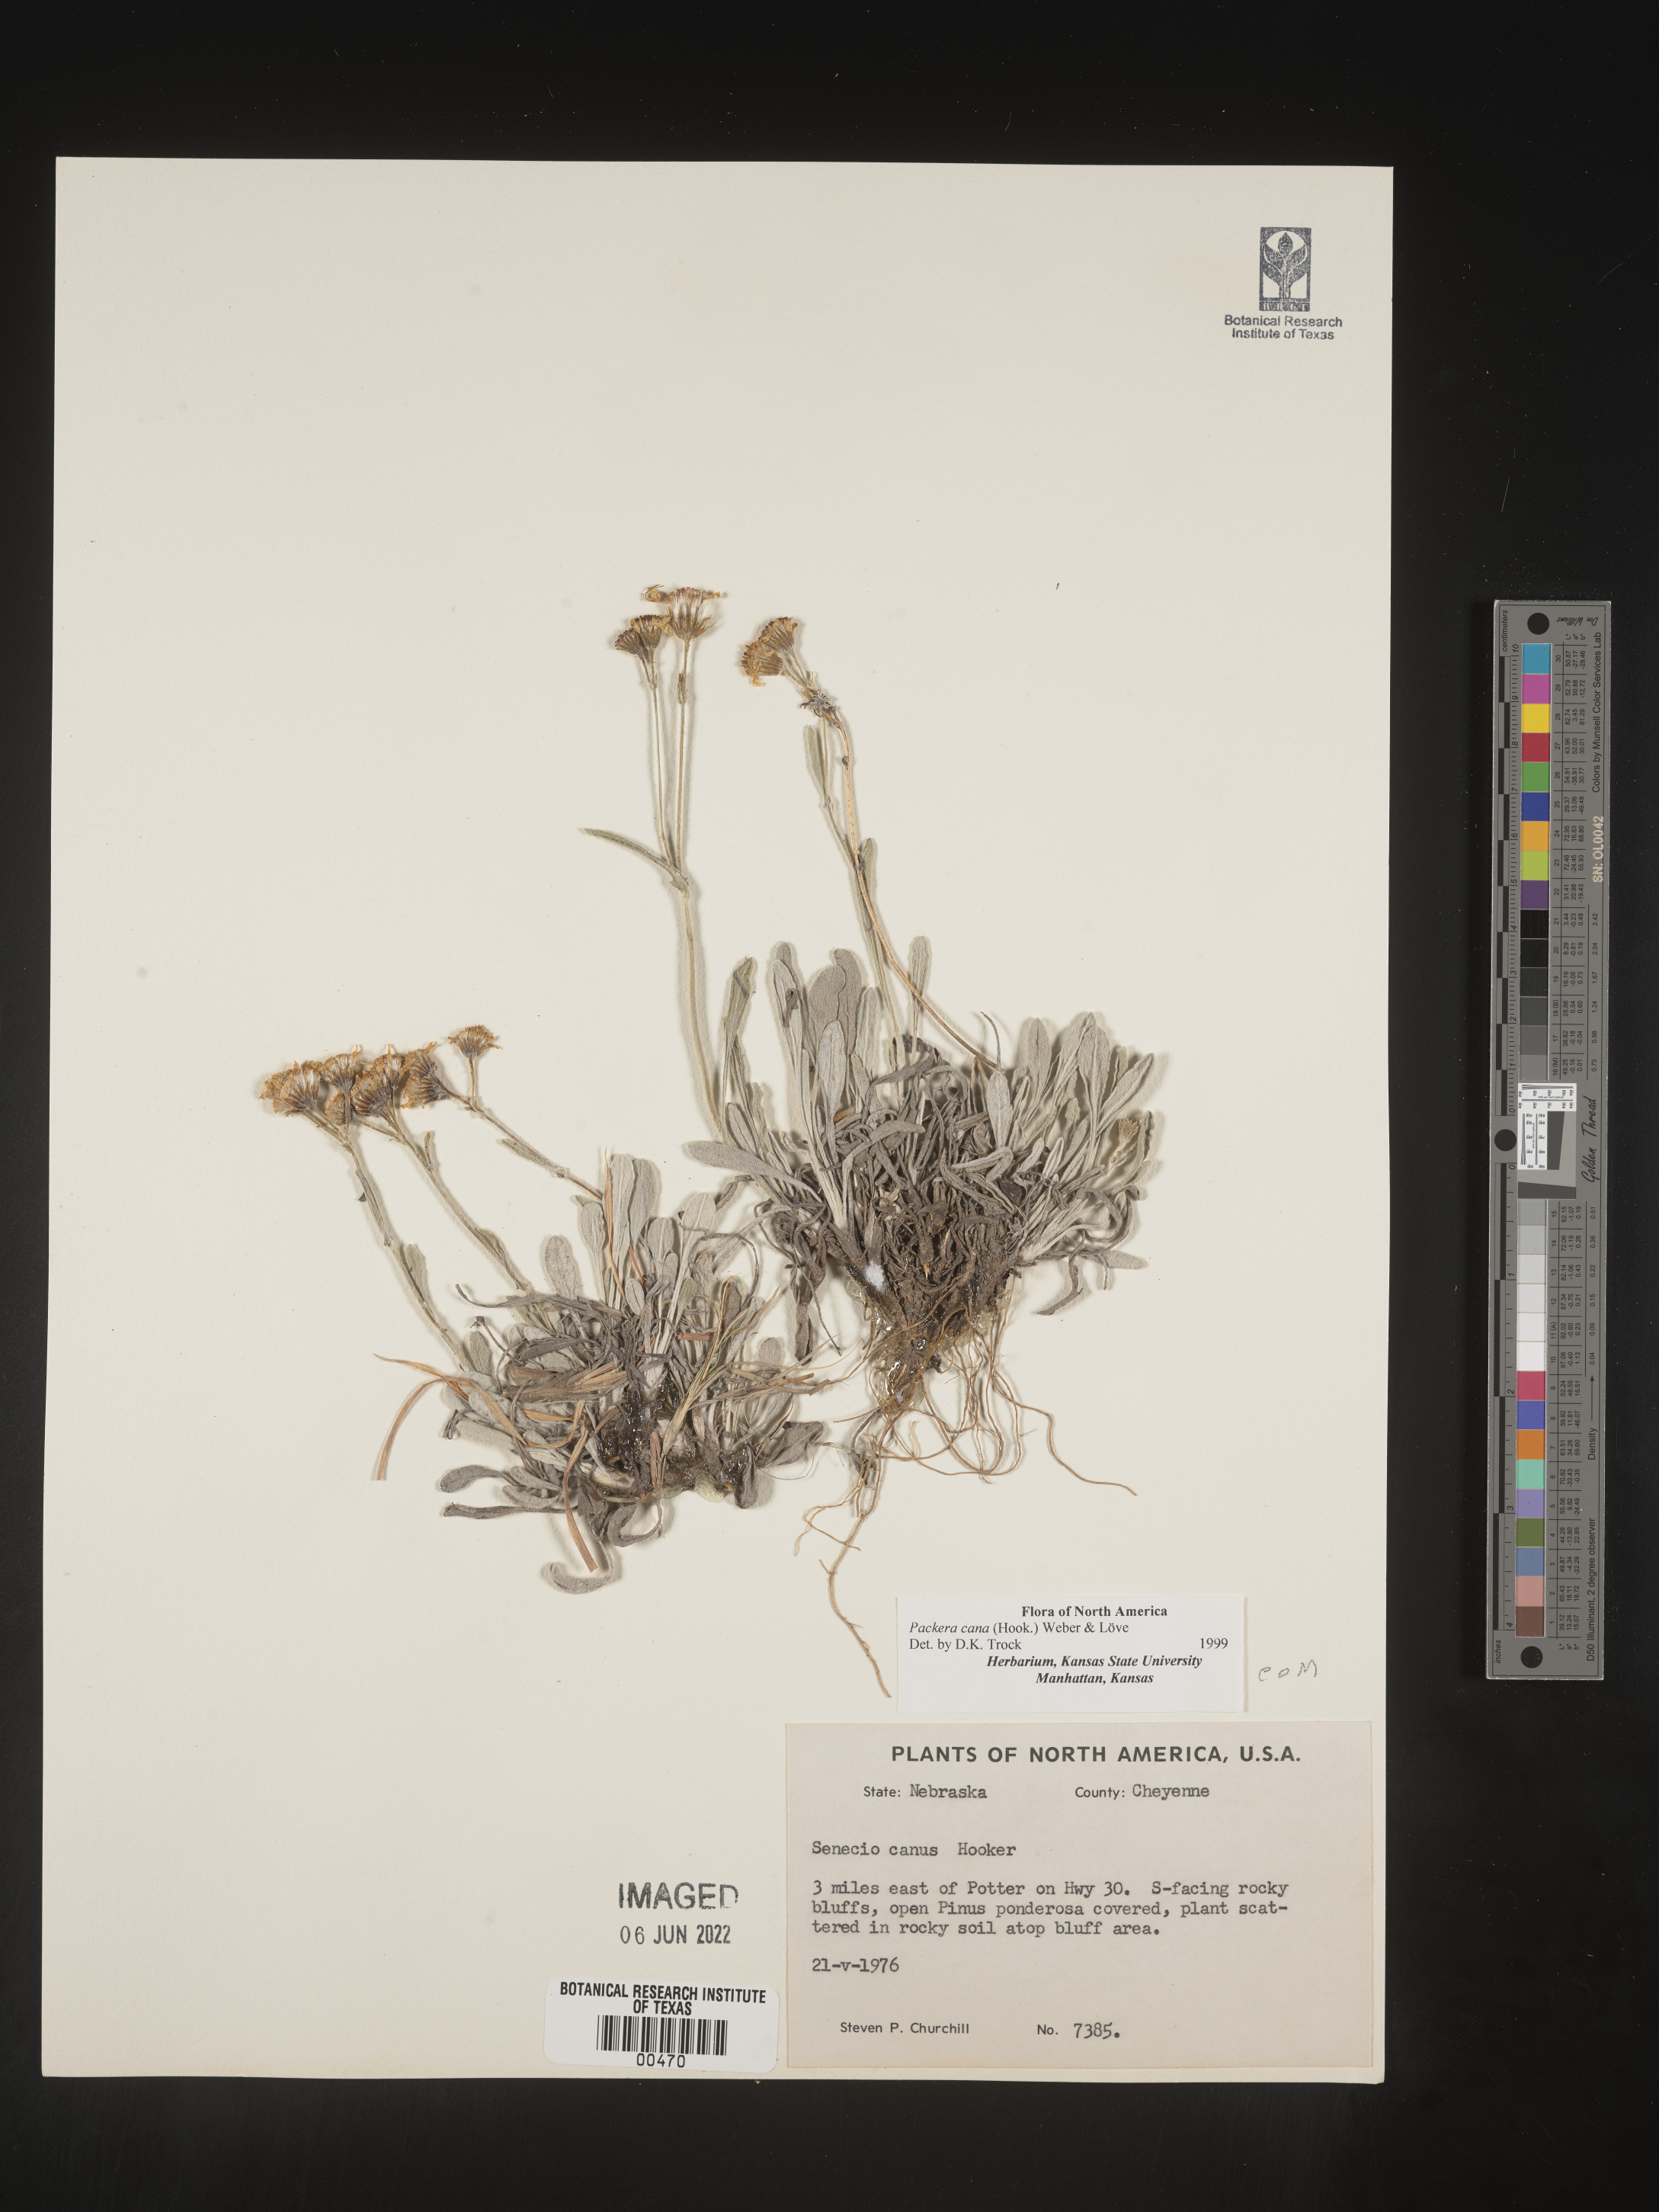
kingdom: Plantae
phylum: Tracheophyta
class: Magnoliopsida
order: Asterales
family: Asteraceae
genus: Packera
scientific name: Packera cana
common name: Woolly groundsel
